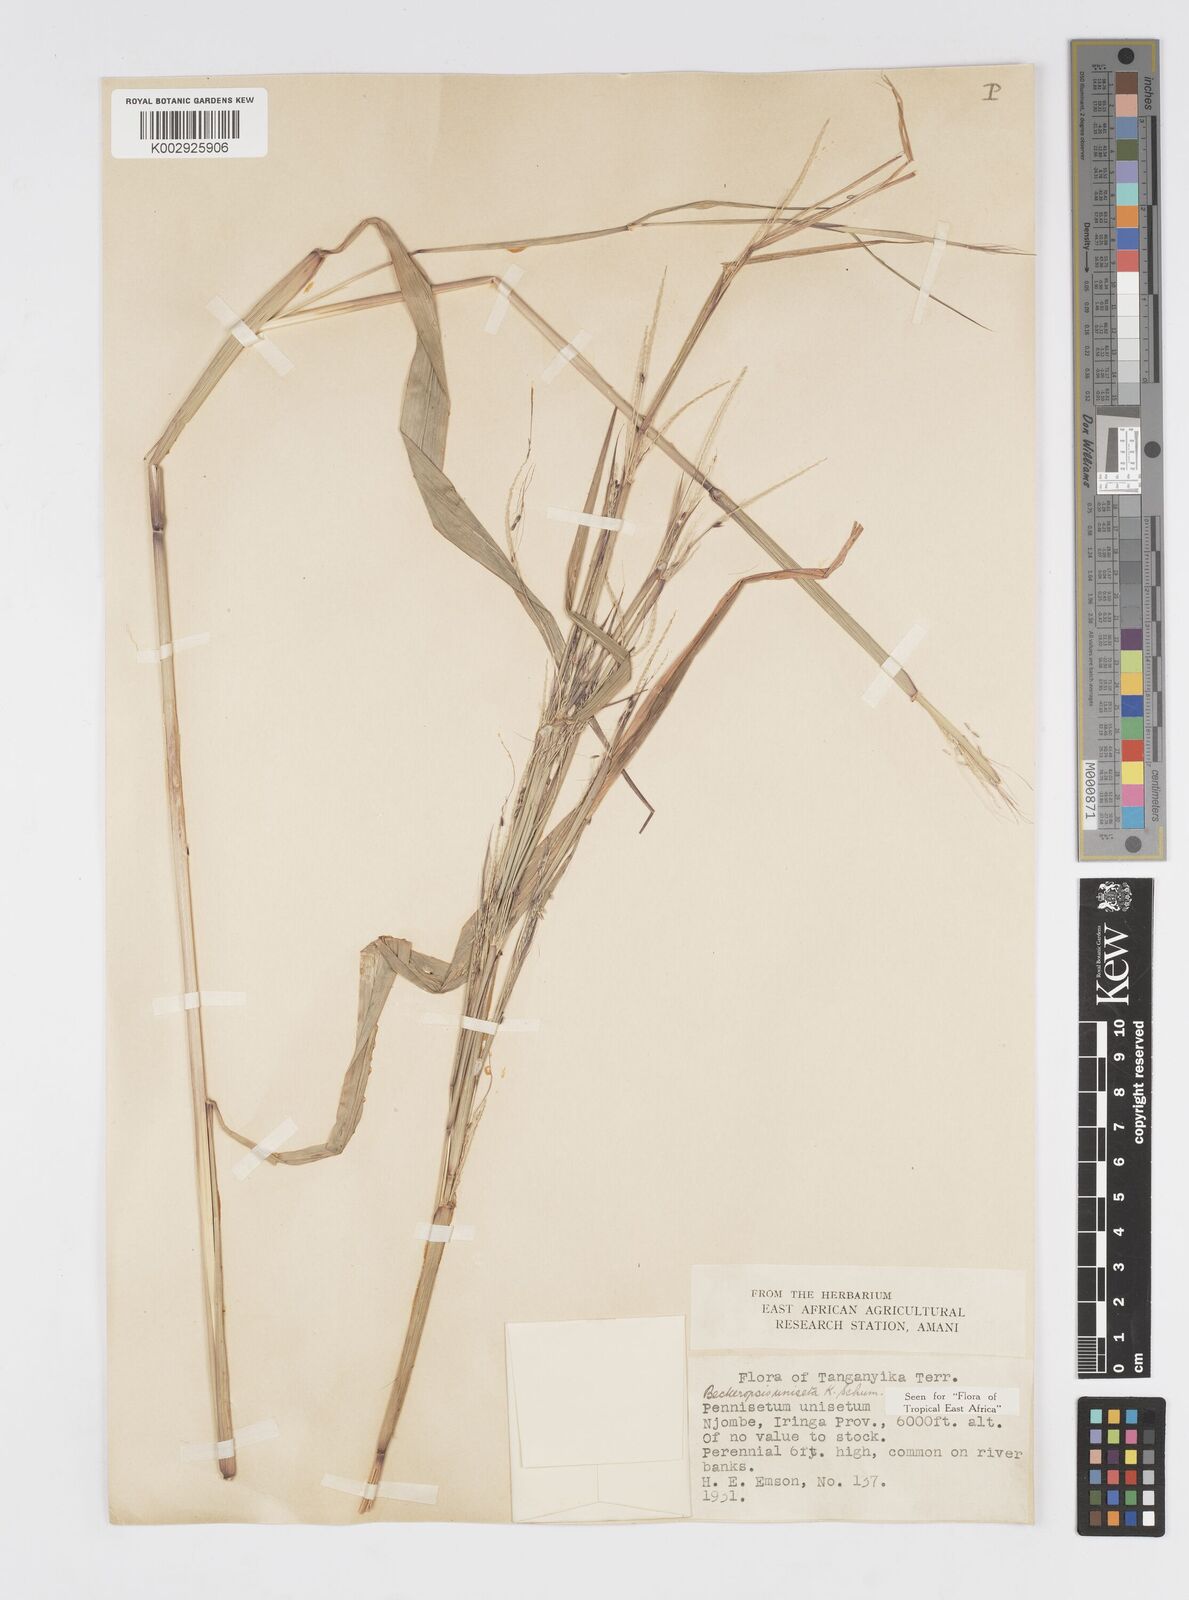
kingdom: Plantae
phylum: Tracheophyta
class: Liliopsida
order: Poales
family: Poaceae
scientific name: Poaceae
